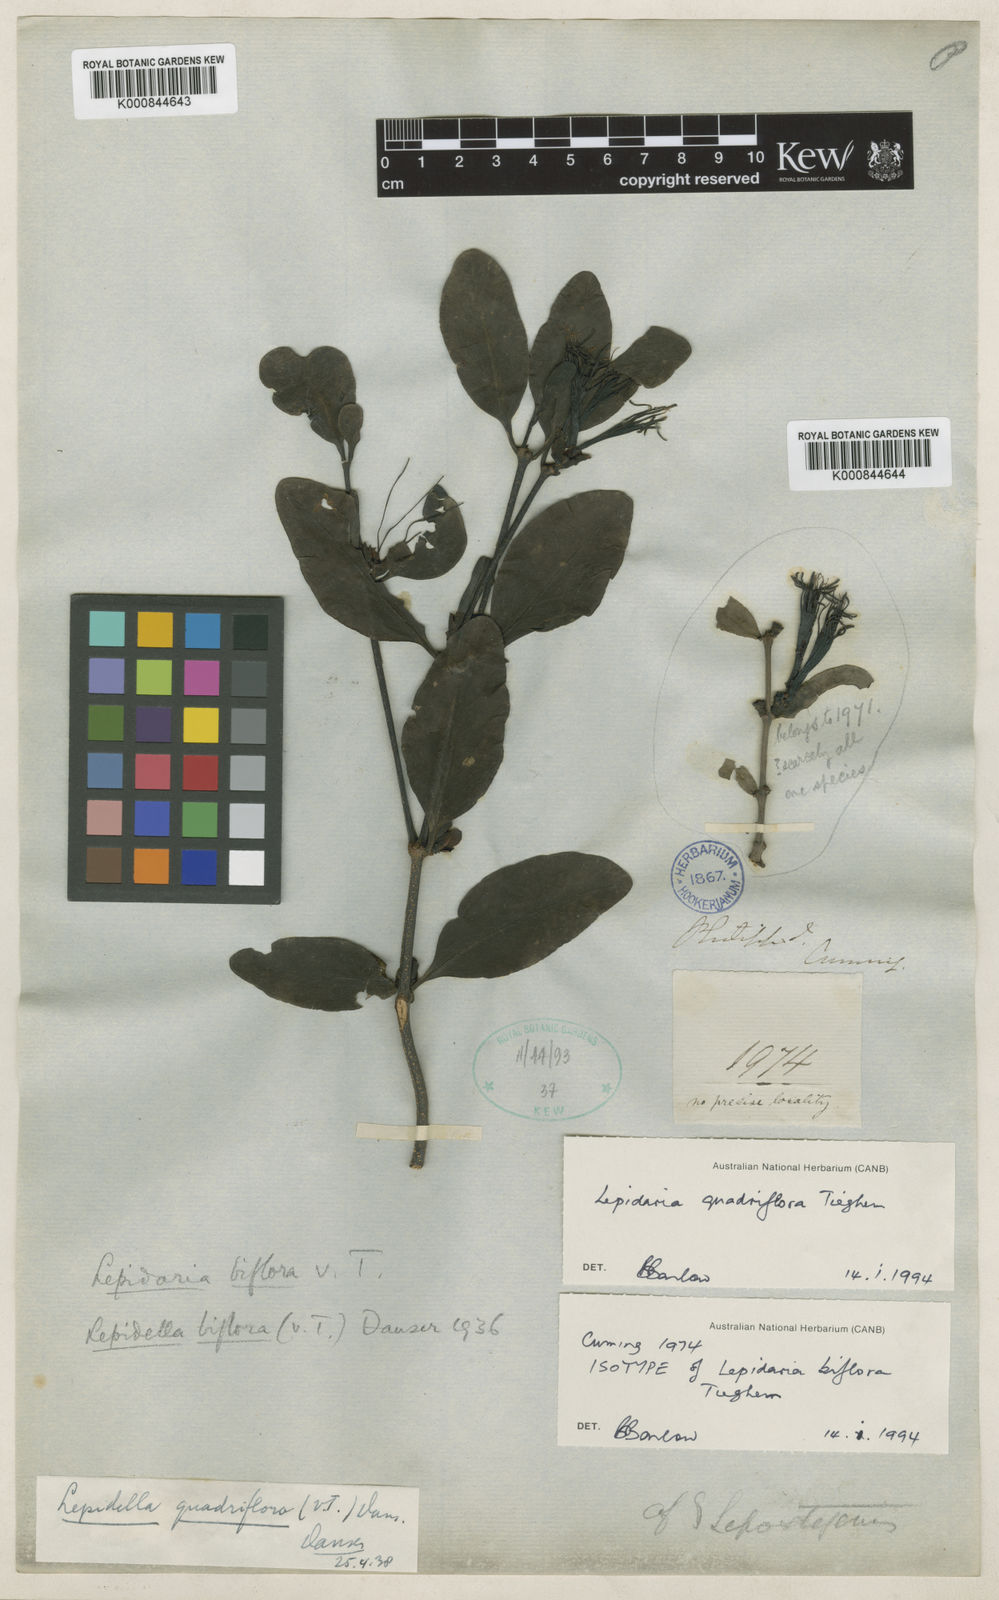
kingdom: Plantae
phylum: Tracheophyta
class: Magnoliopsida
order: Santalales
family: Loranthaceae
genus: Lepidaria
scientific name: Lepidaria biflora
